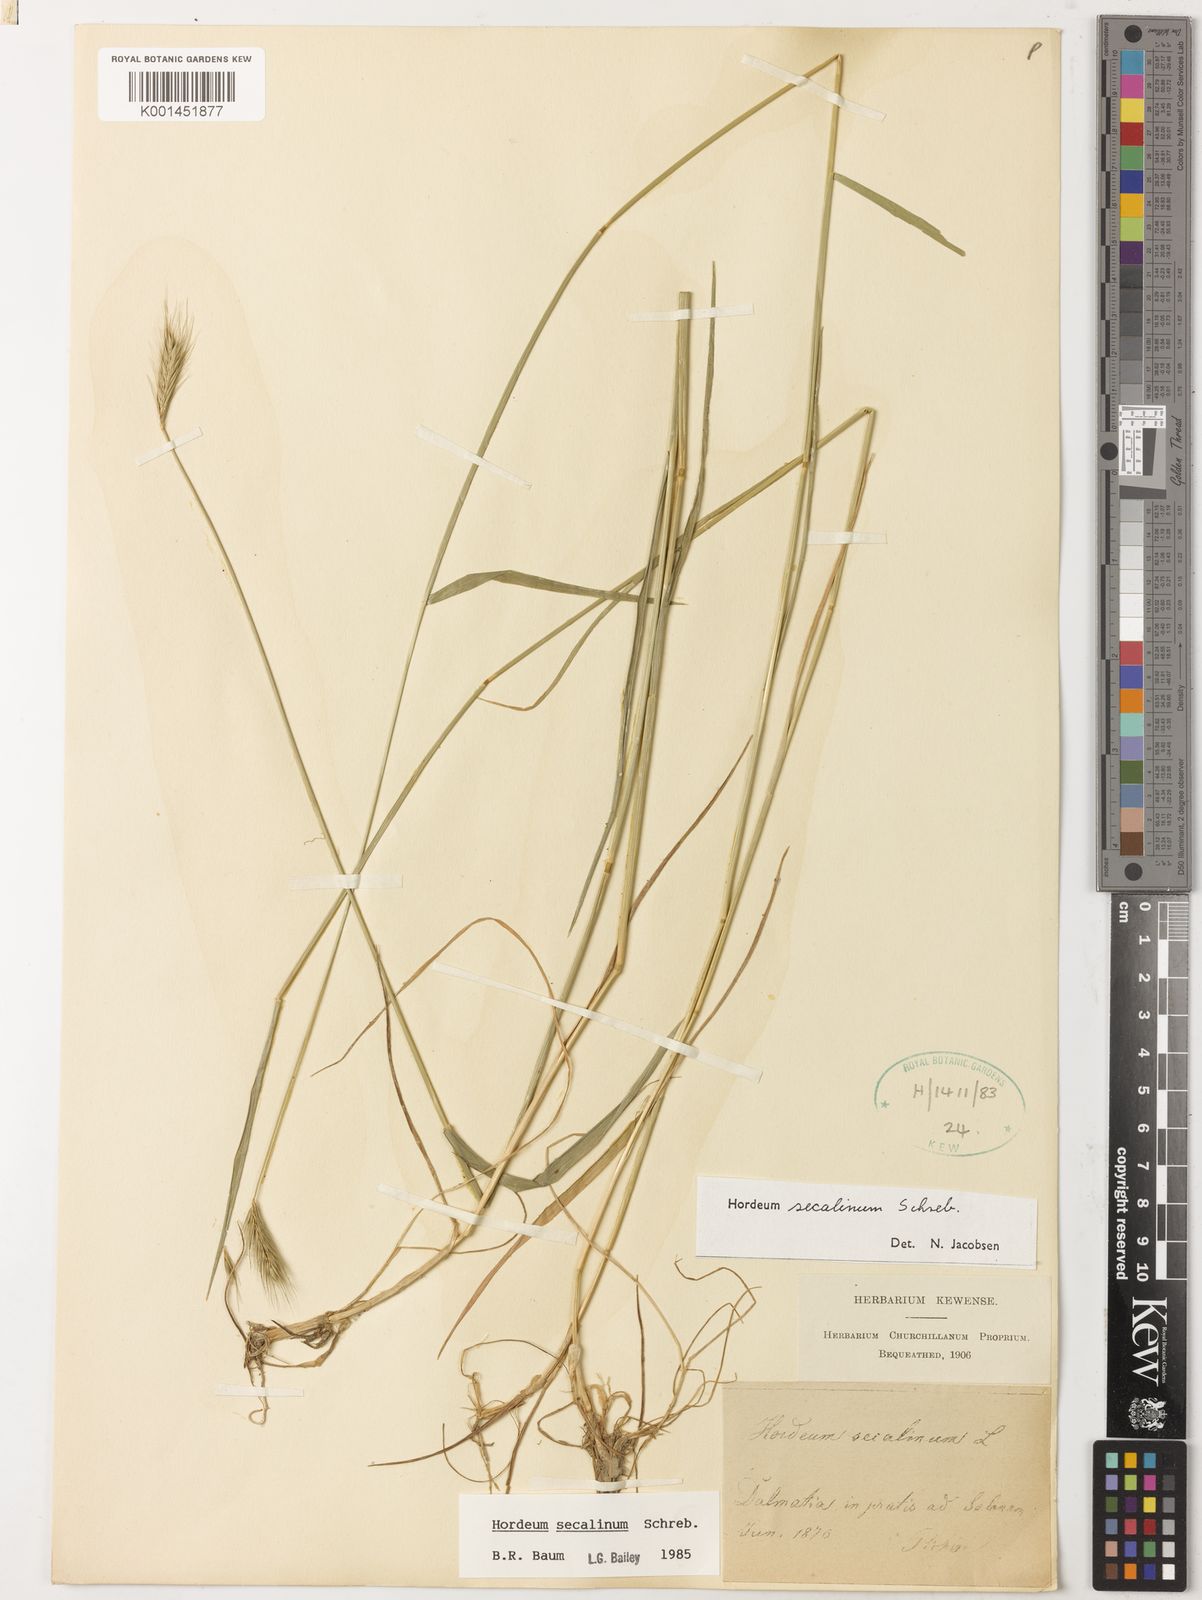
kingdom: Plantae
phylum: Tracheophyta
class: Liliopsida
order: Poales
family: Poaceae
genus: Hordeum
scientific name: Hordeum secalinum
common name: Meadow barley
